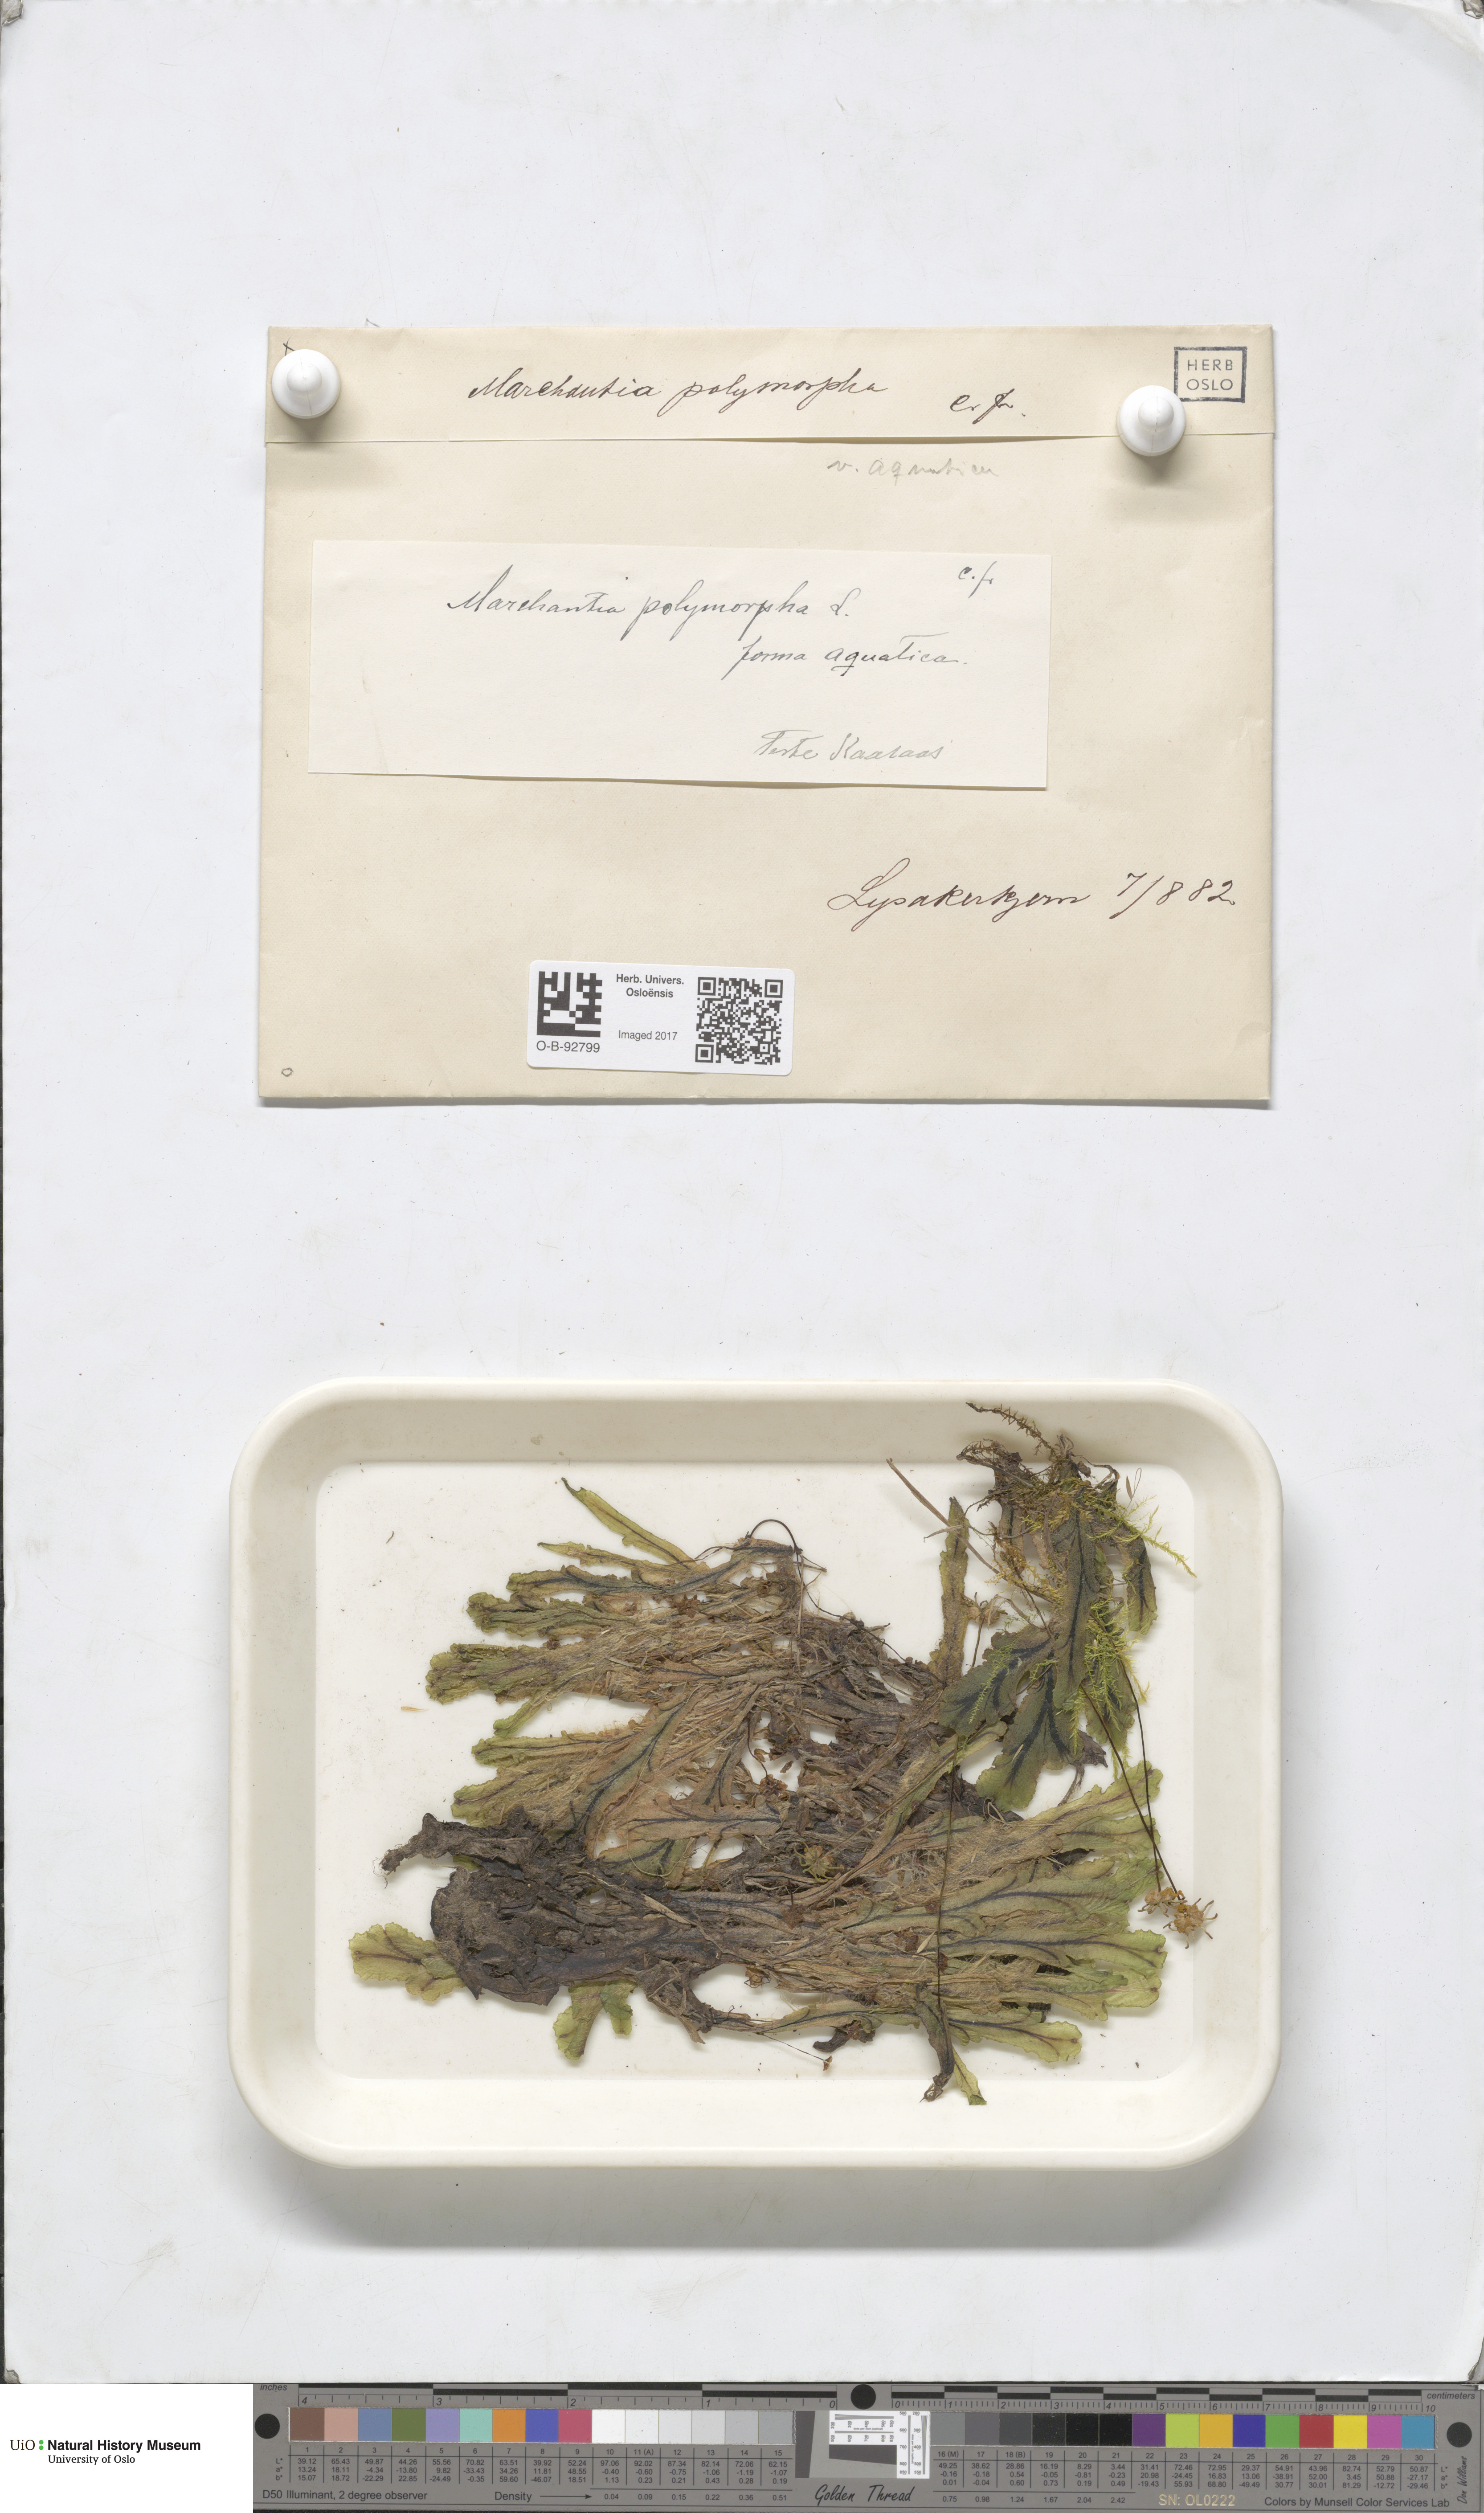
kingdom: Plantae
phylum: Marchantiophyta
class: Marchantiopsida
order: Marchantiales
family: Marchantiaceae
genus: Marchantia
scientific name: Marchantia polymorpha
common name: Common liverwort
